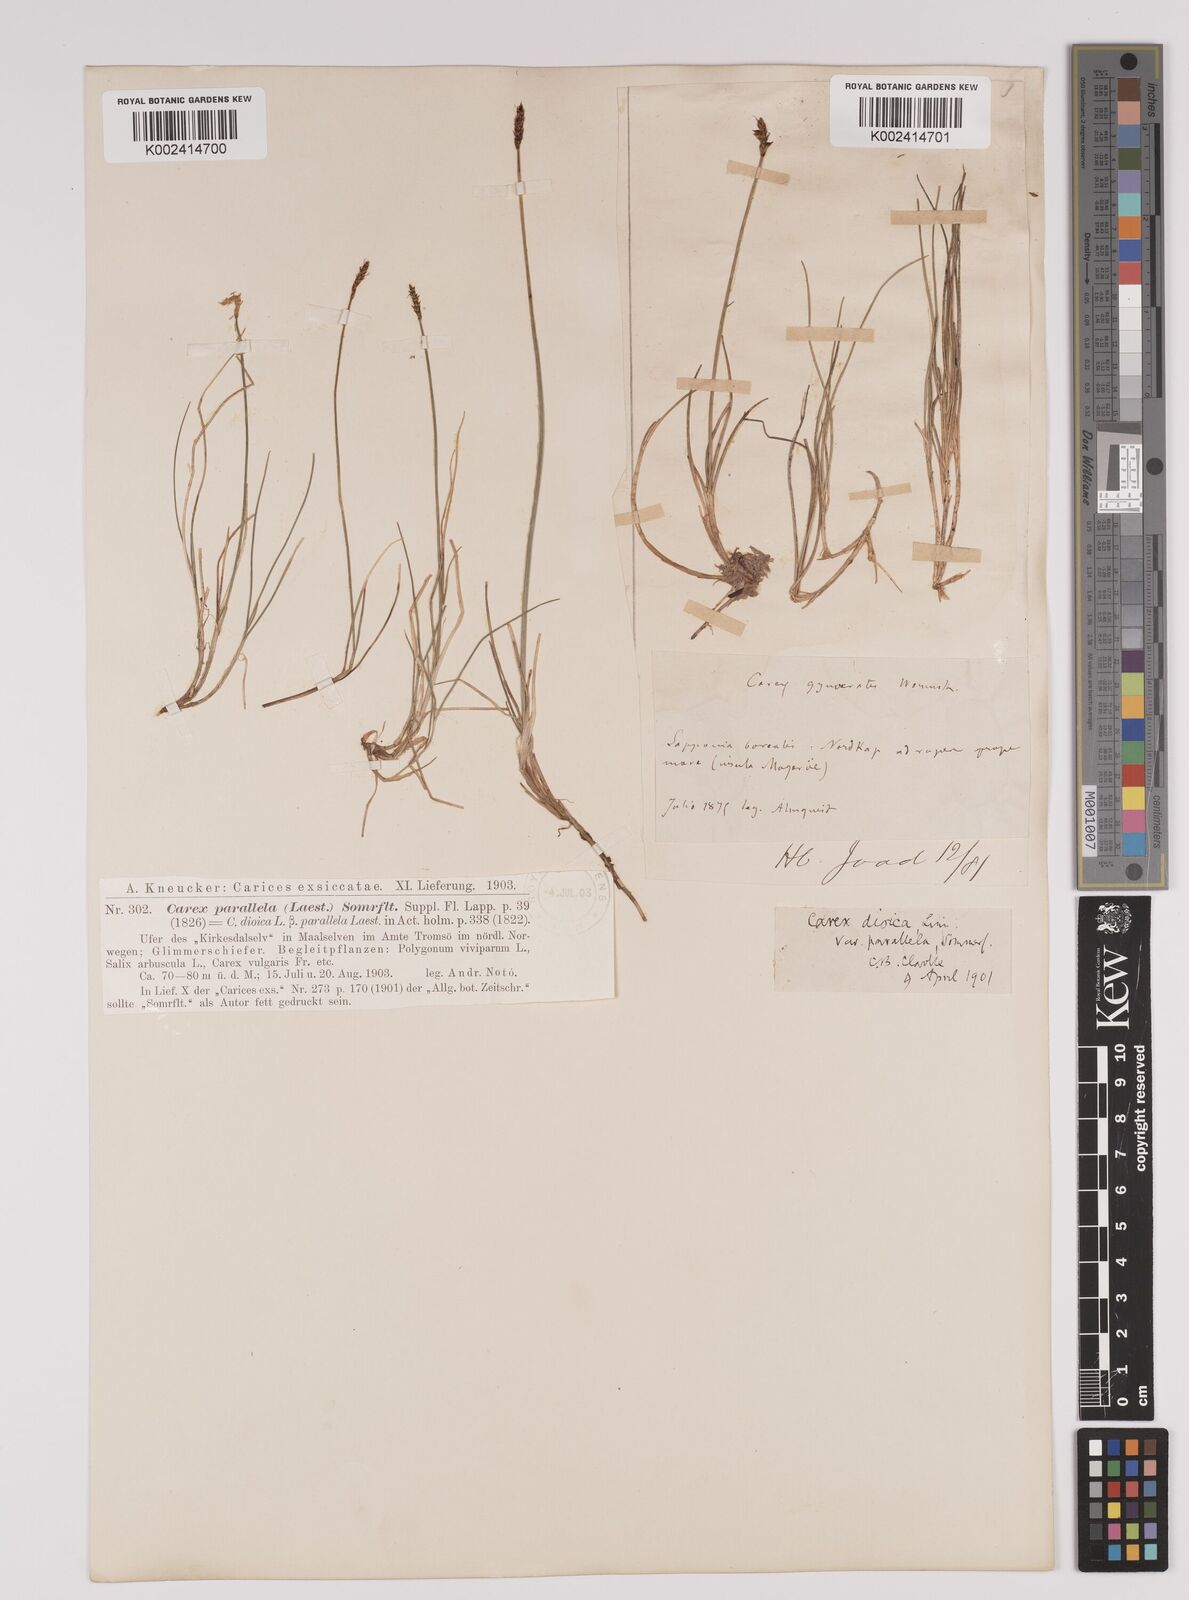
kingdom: Plantae
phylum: Tracheophyta
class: Liliopsida
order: Poales
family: Cyperaceae
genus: Carex
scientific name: Carex parallela
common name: Parallel sedge
